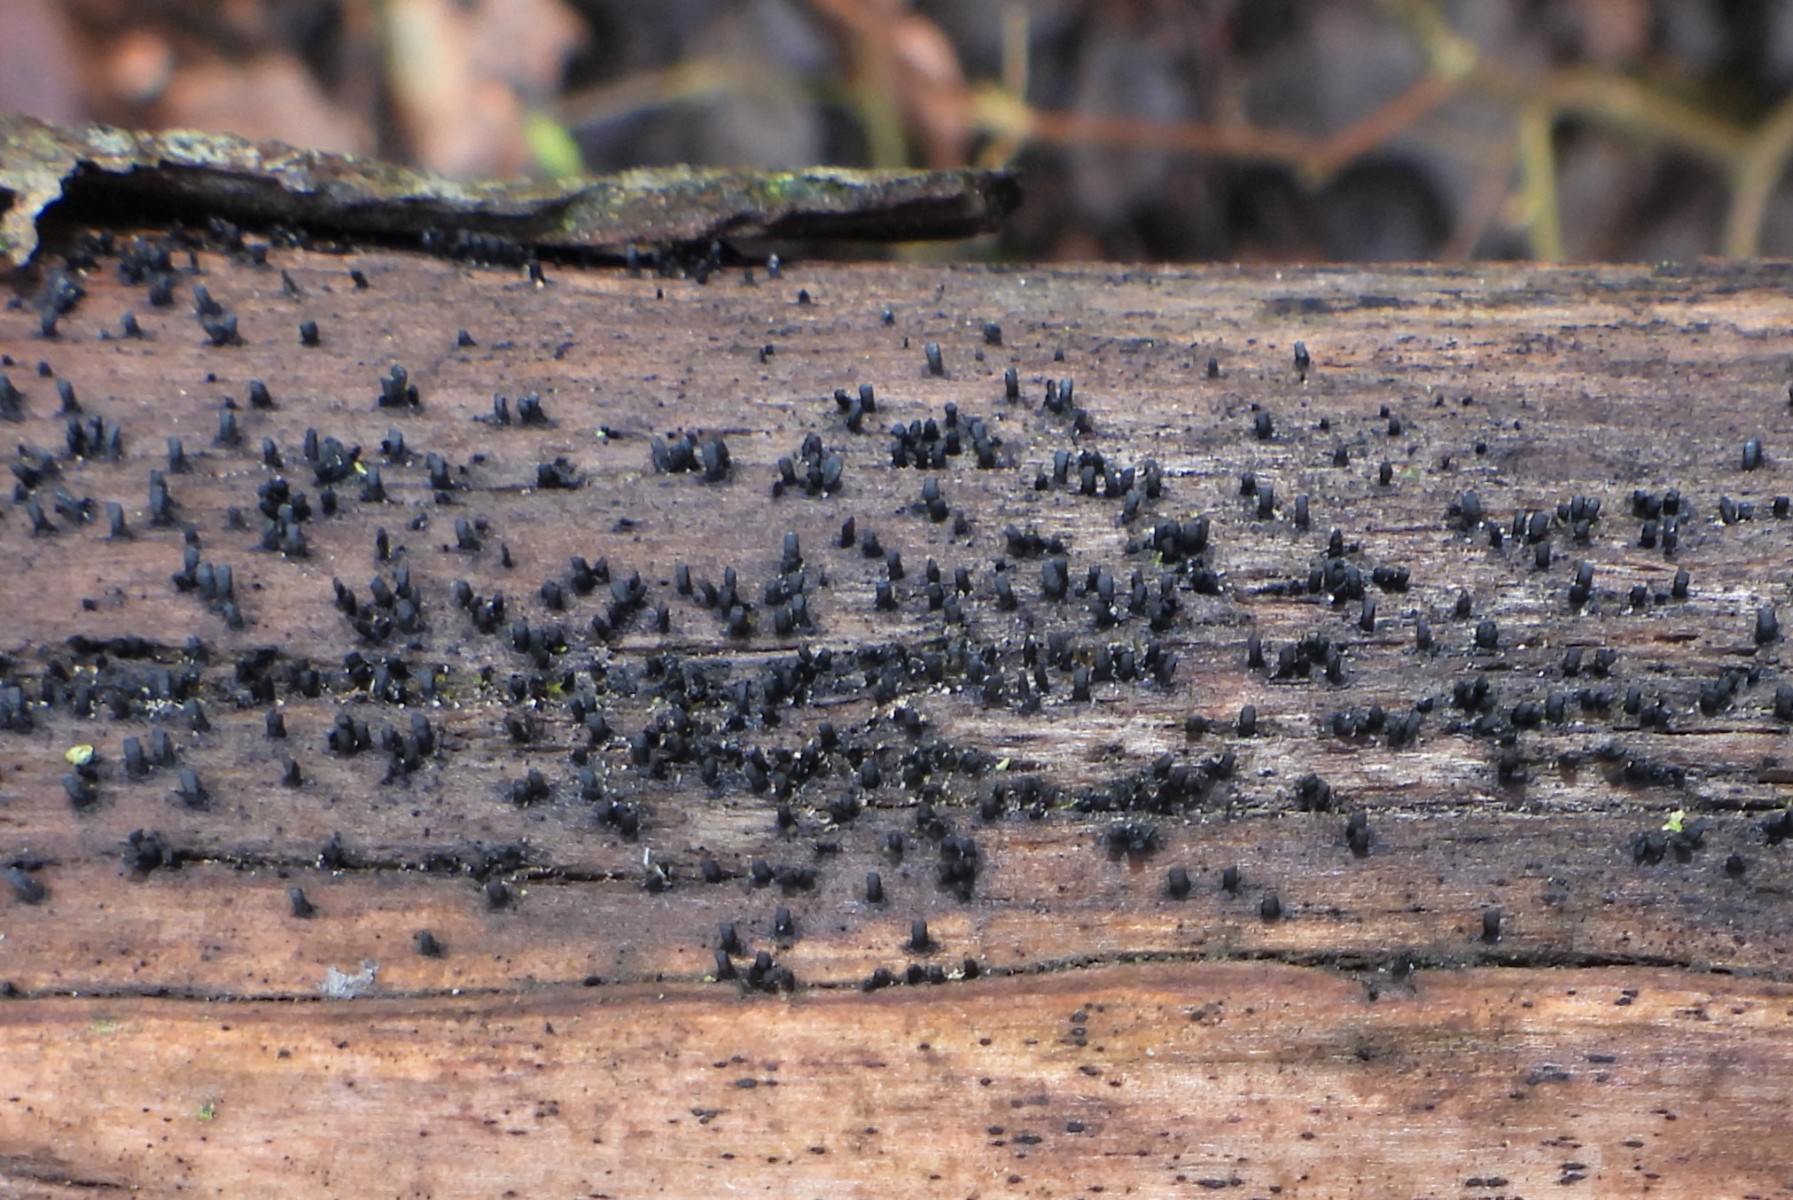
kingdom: Fungi
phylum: Ascomycota
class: Eurotiomycetes
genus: Glyphium
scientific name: Glyphium elatum
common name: kuløkse
